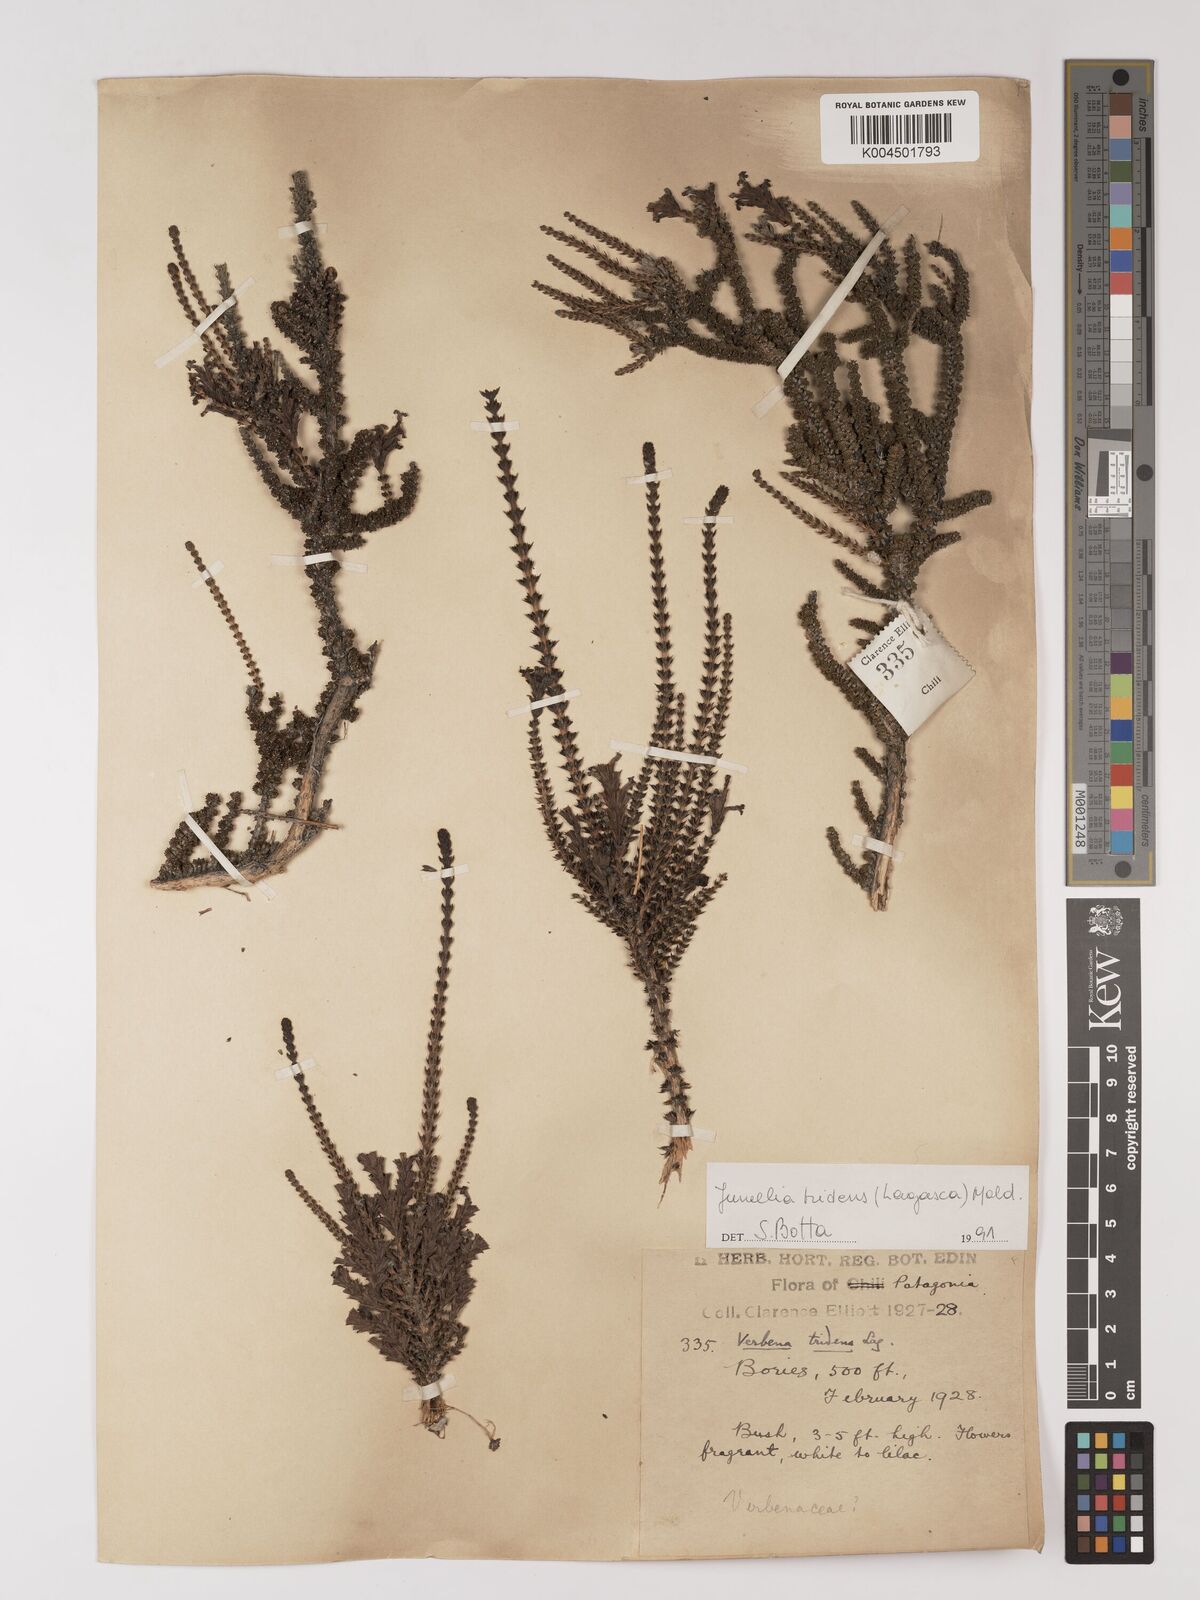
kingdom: Plantae
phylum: Tracheophyta
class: Magnoliopsida
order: Lamiales
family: Verbenaceae
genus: Mulguraea
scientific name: Mulguraea tridens
